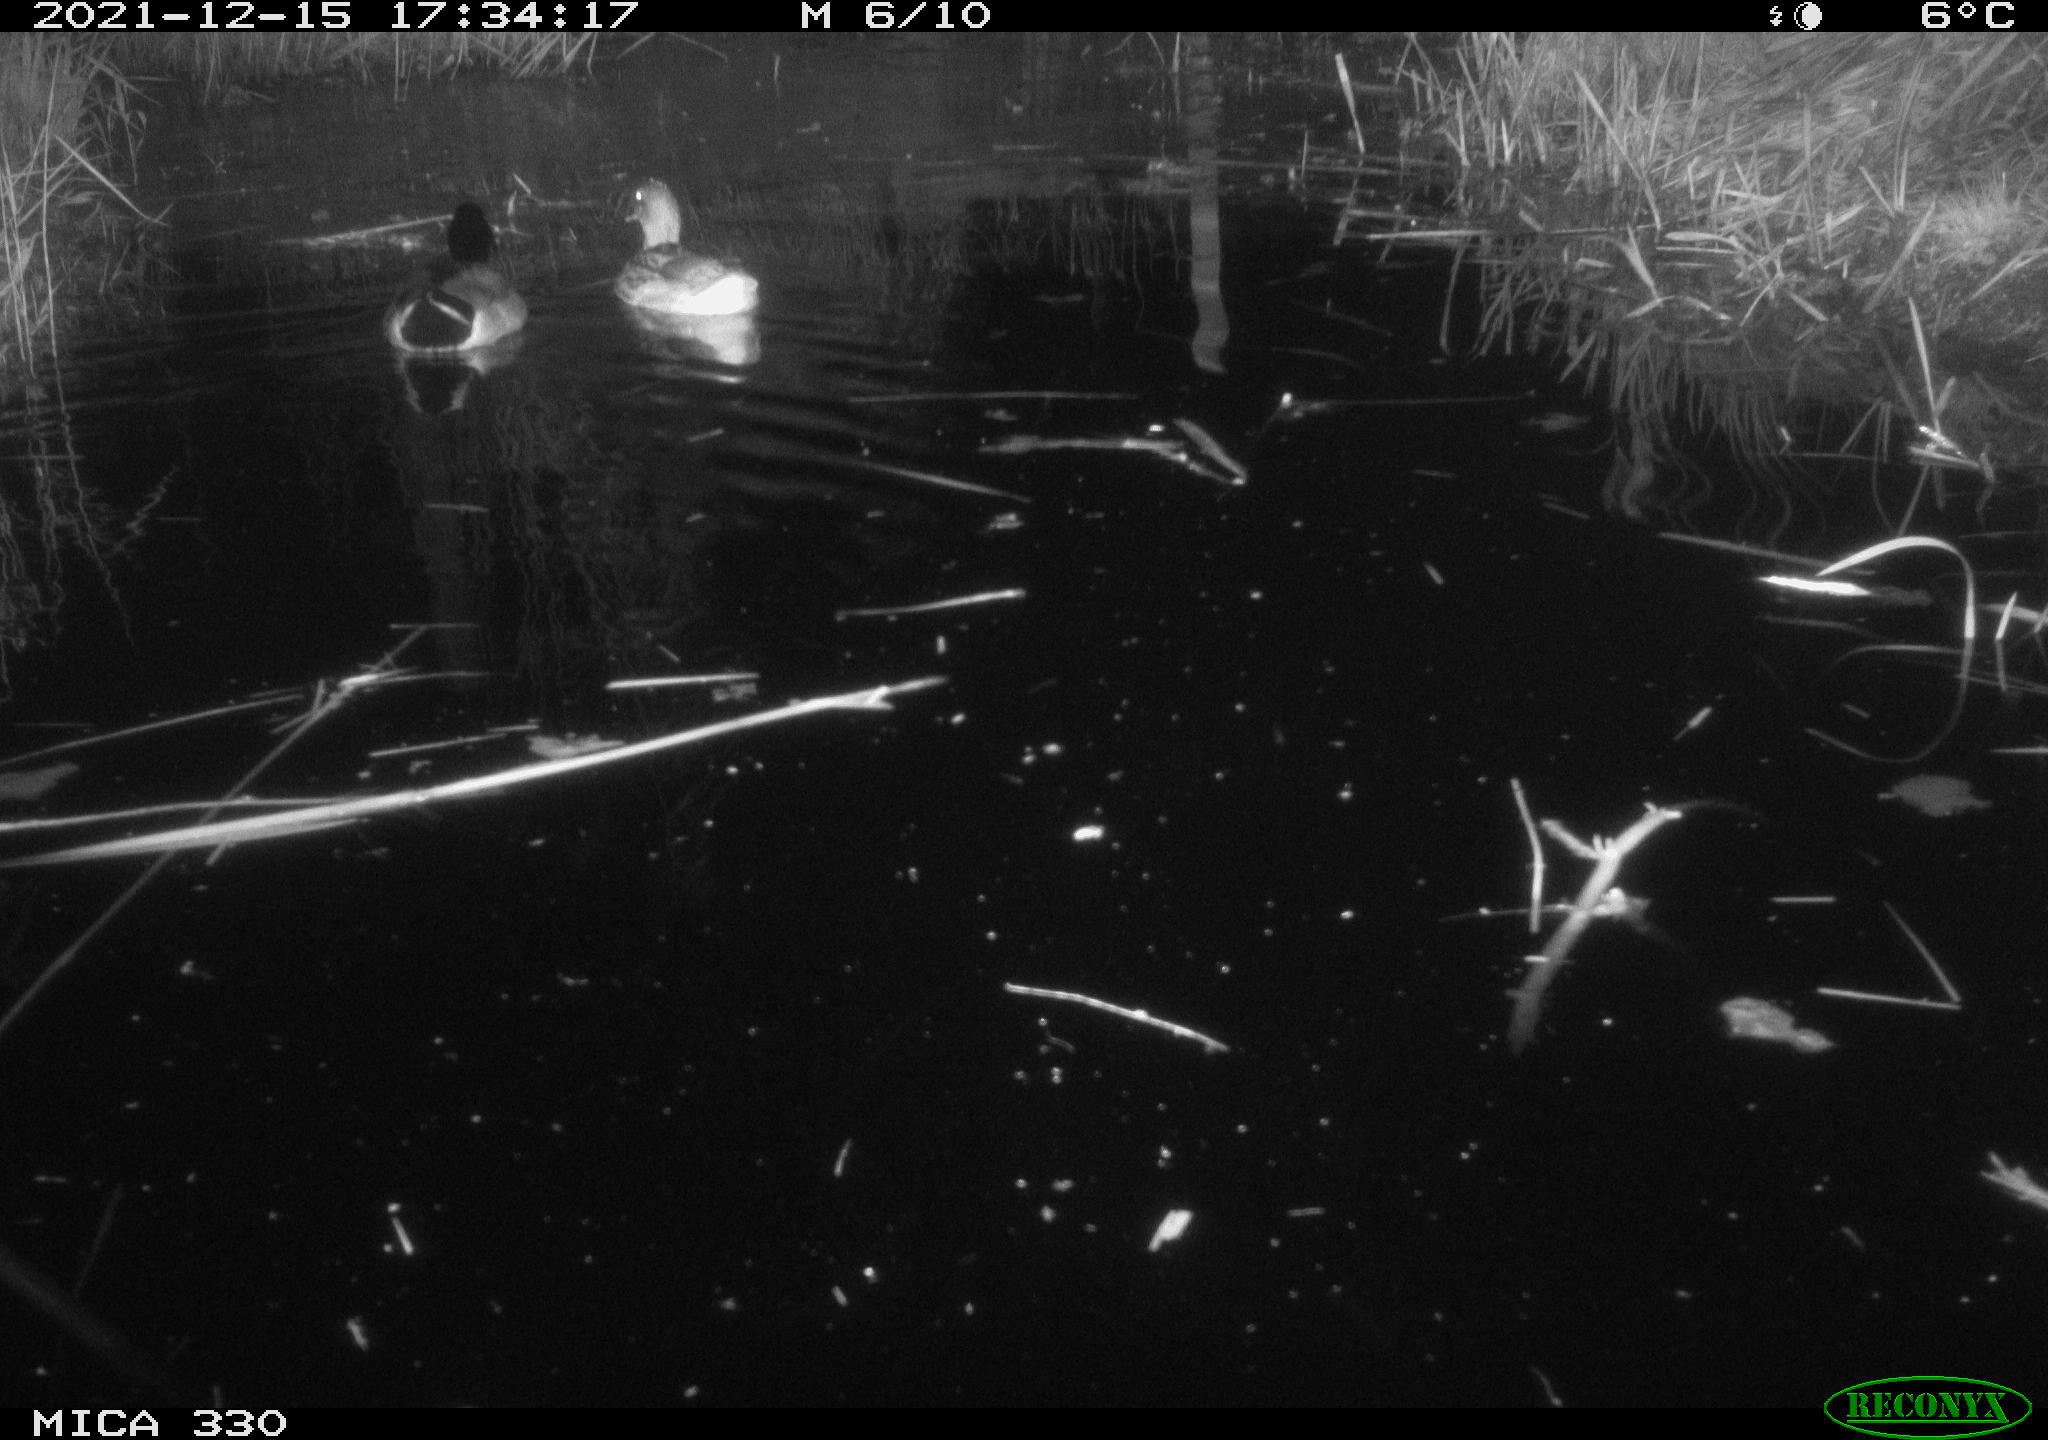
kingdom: Animalia
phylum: Chordata
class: Aves
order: Anseriformes
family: Anatidae
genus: Anas
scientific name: Anas platyrhynchos
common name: Mallard
